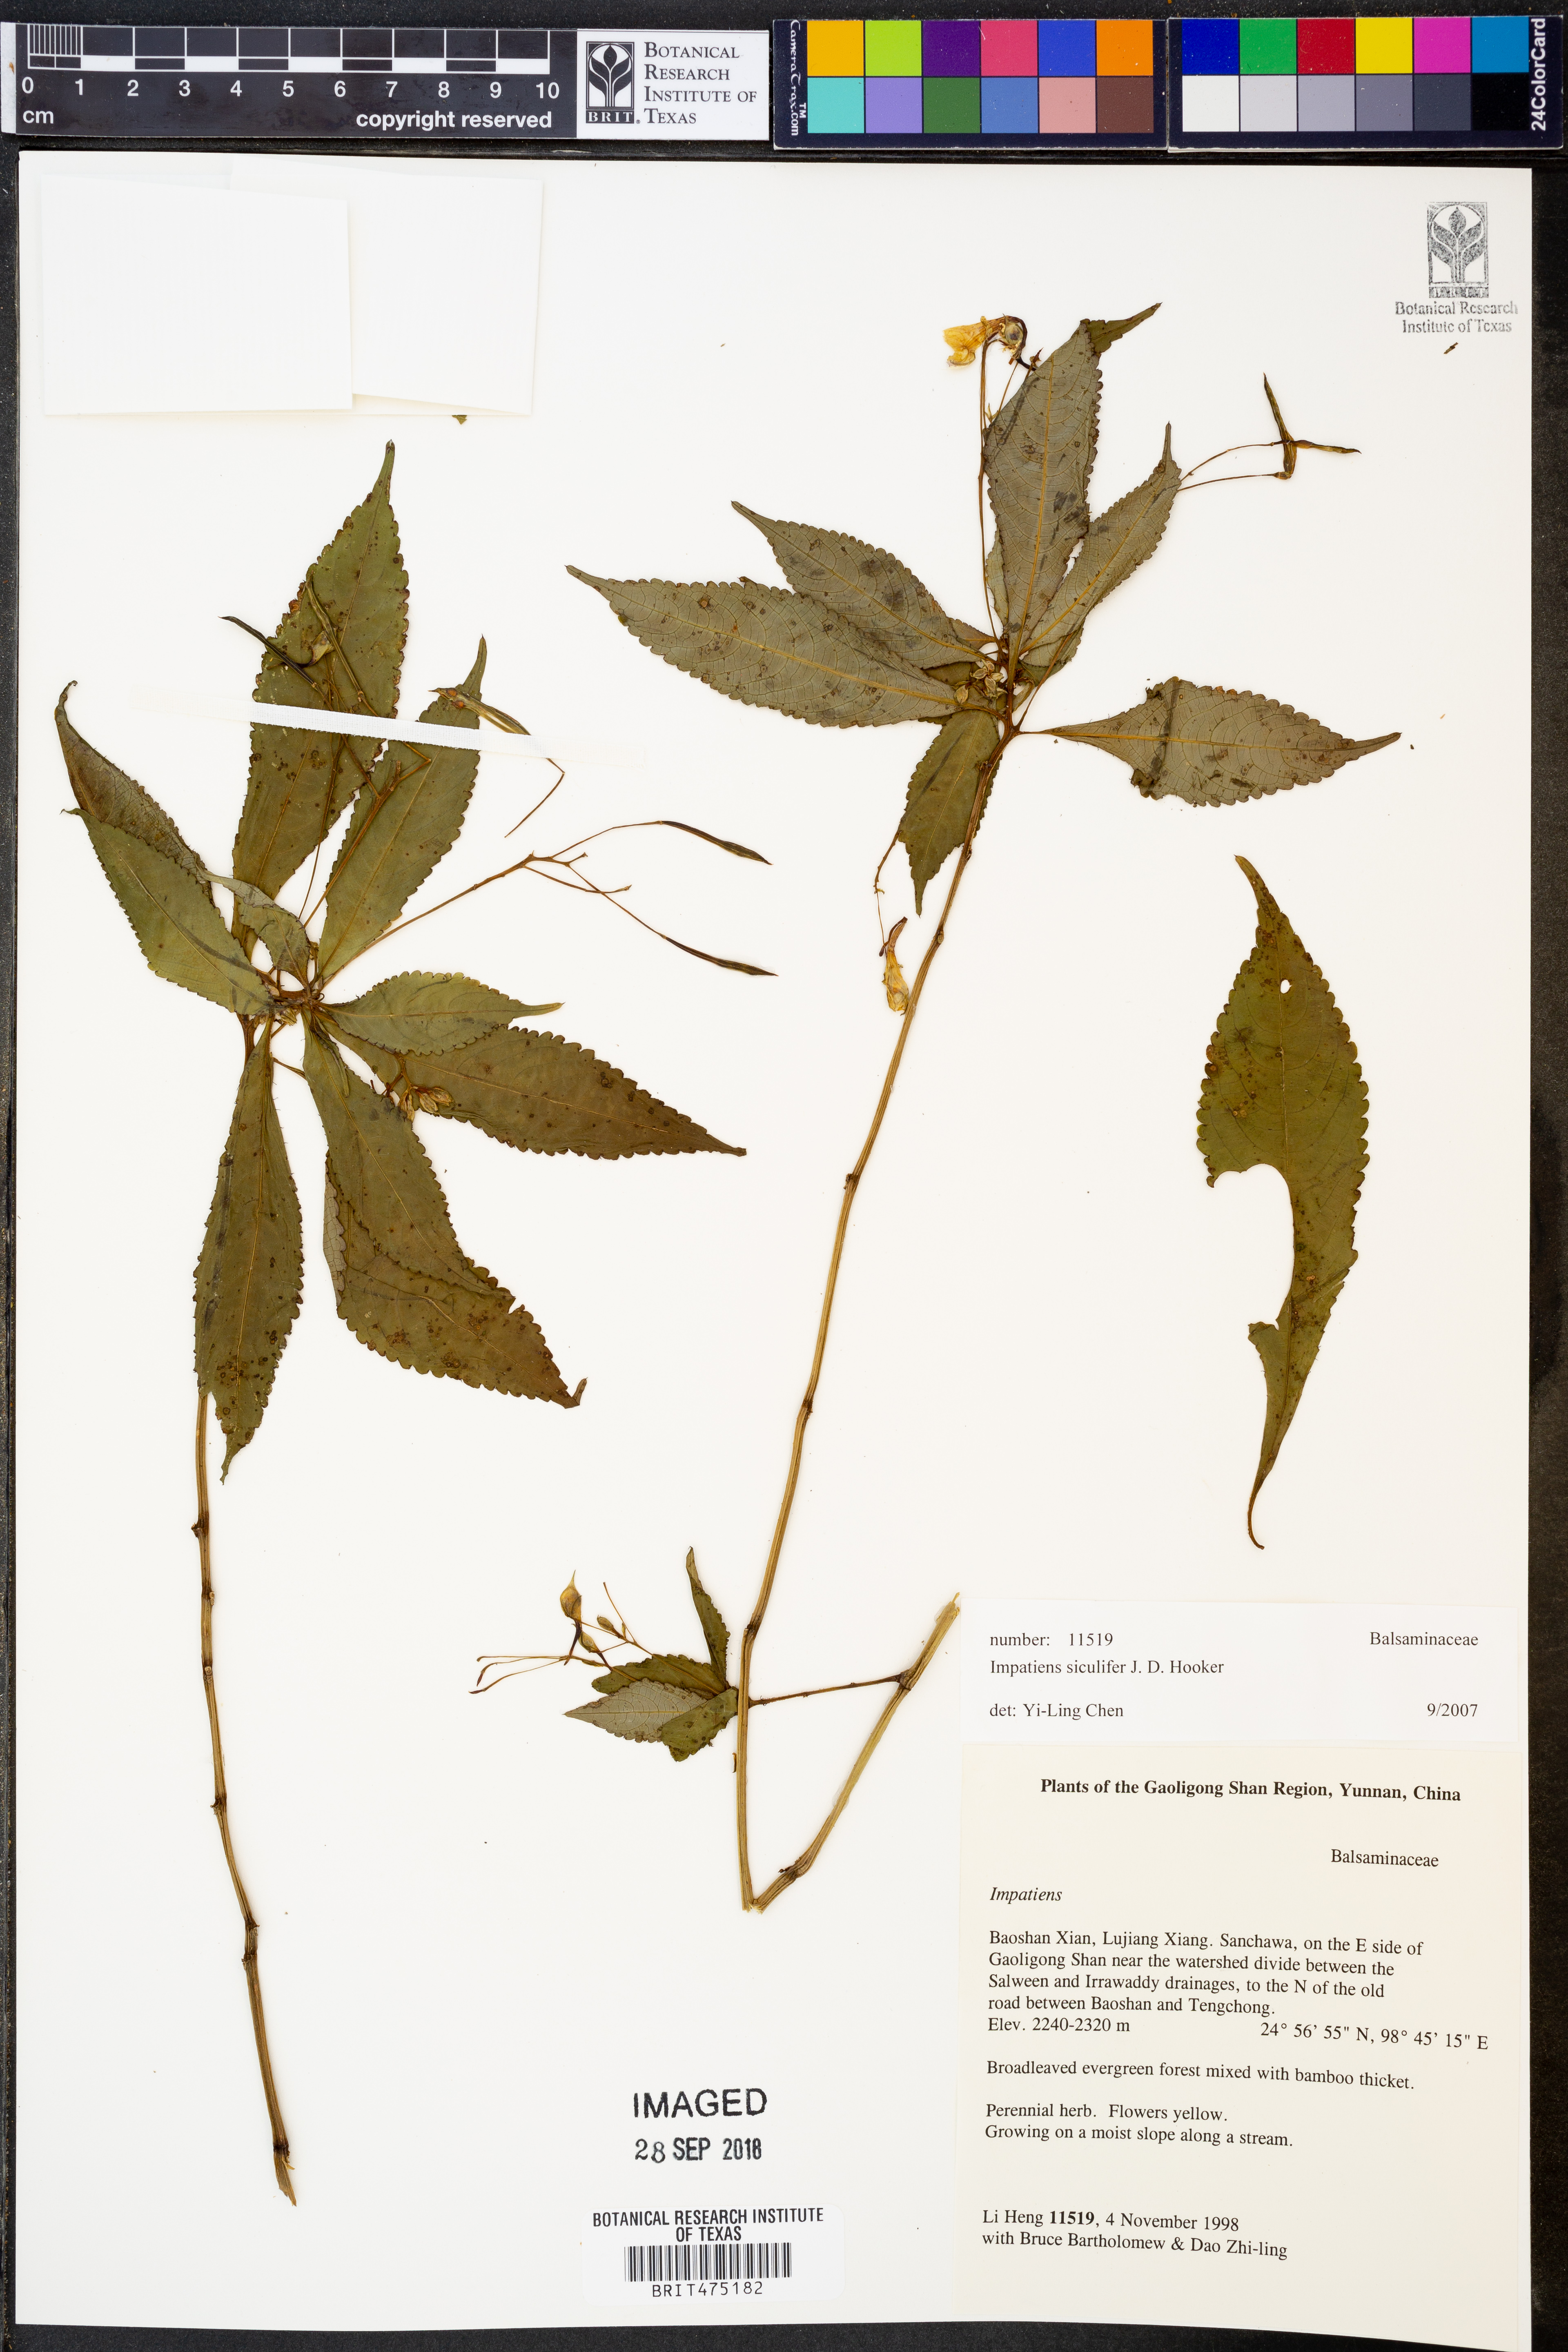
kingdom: Plantae
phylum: Tracheophyta
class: Magnoliopsida
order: Ericales
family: Balsaminaceae
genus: Impatiens
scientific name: Impatiens siculifer
